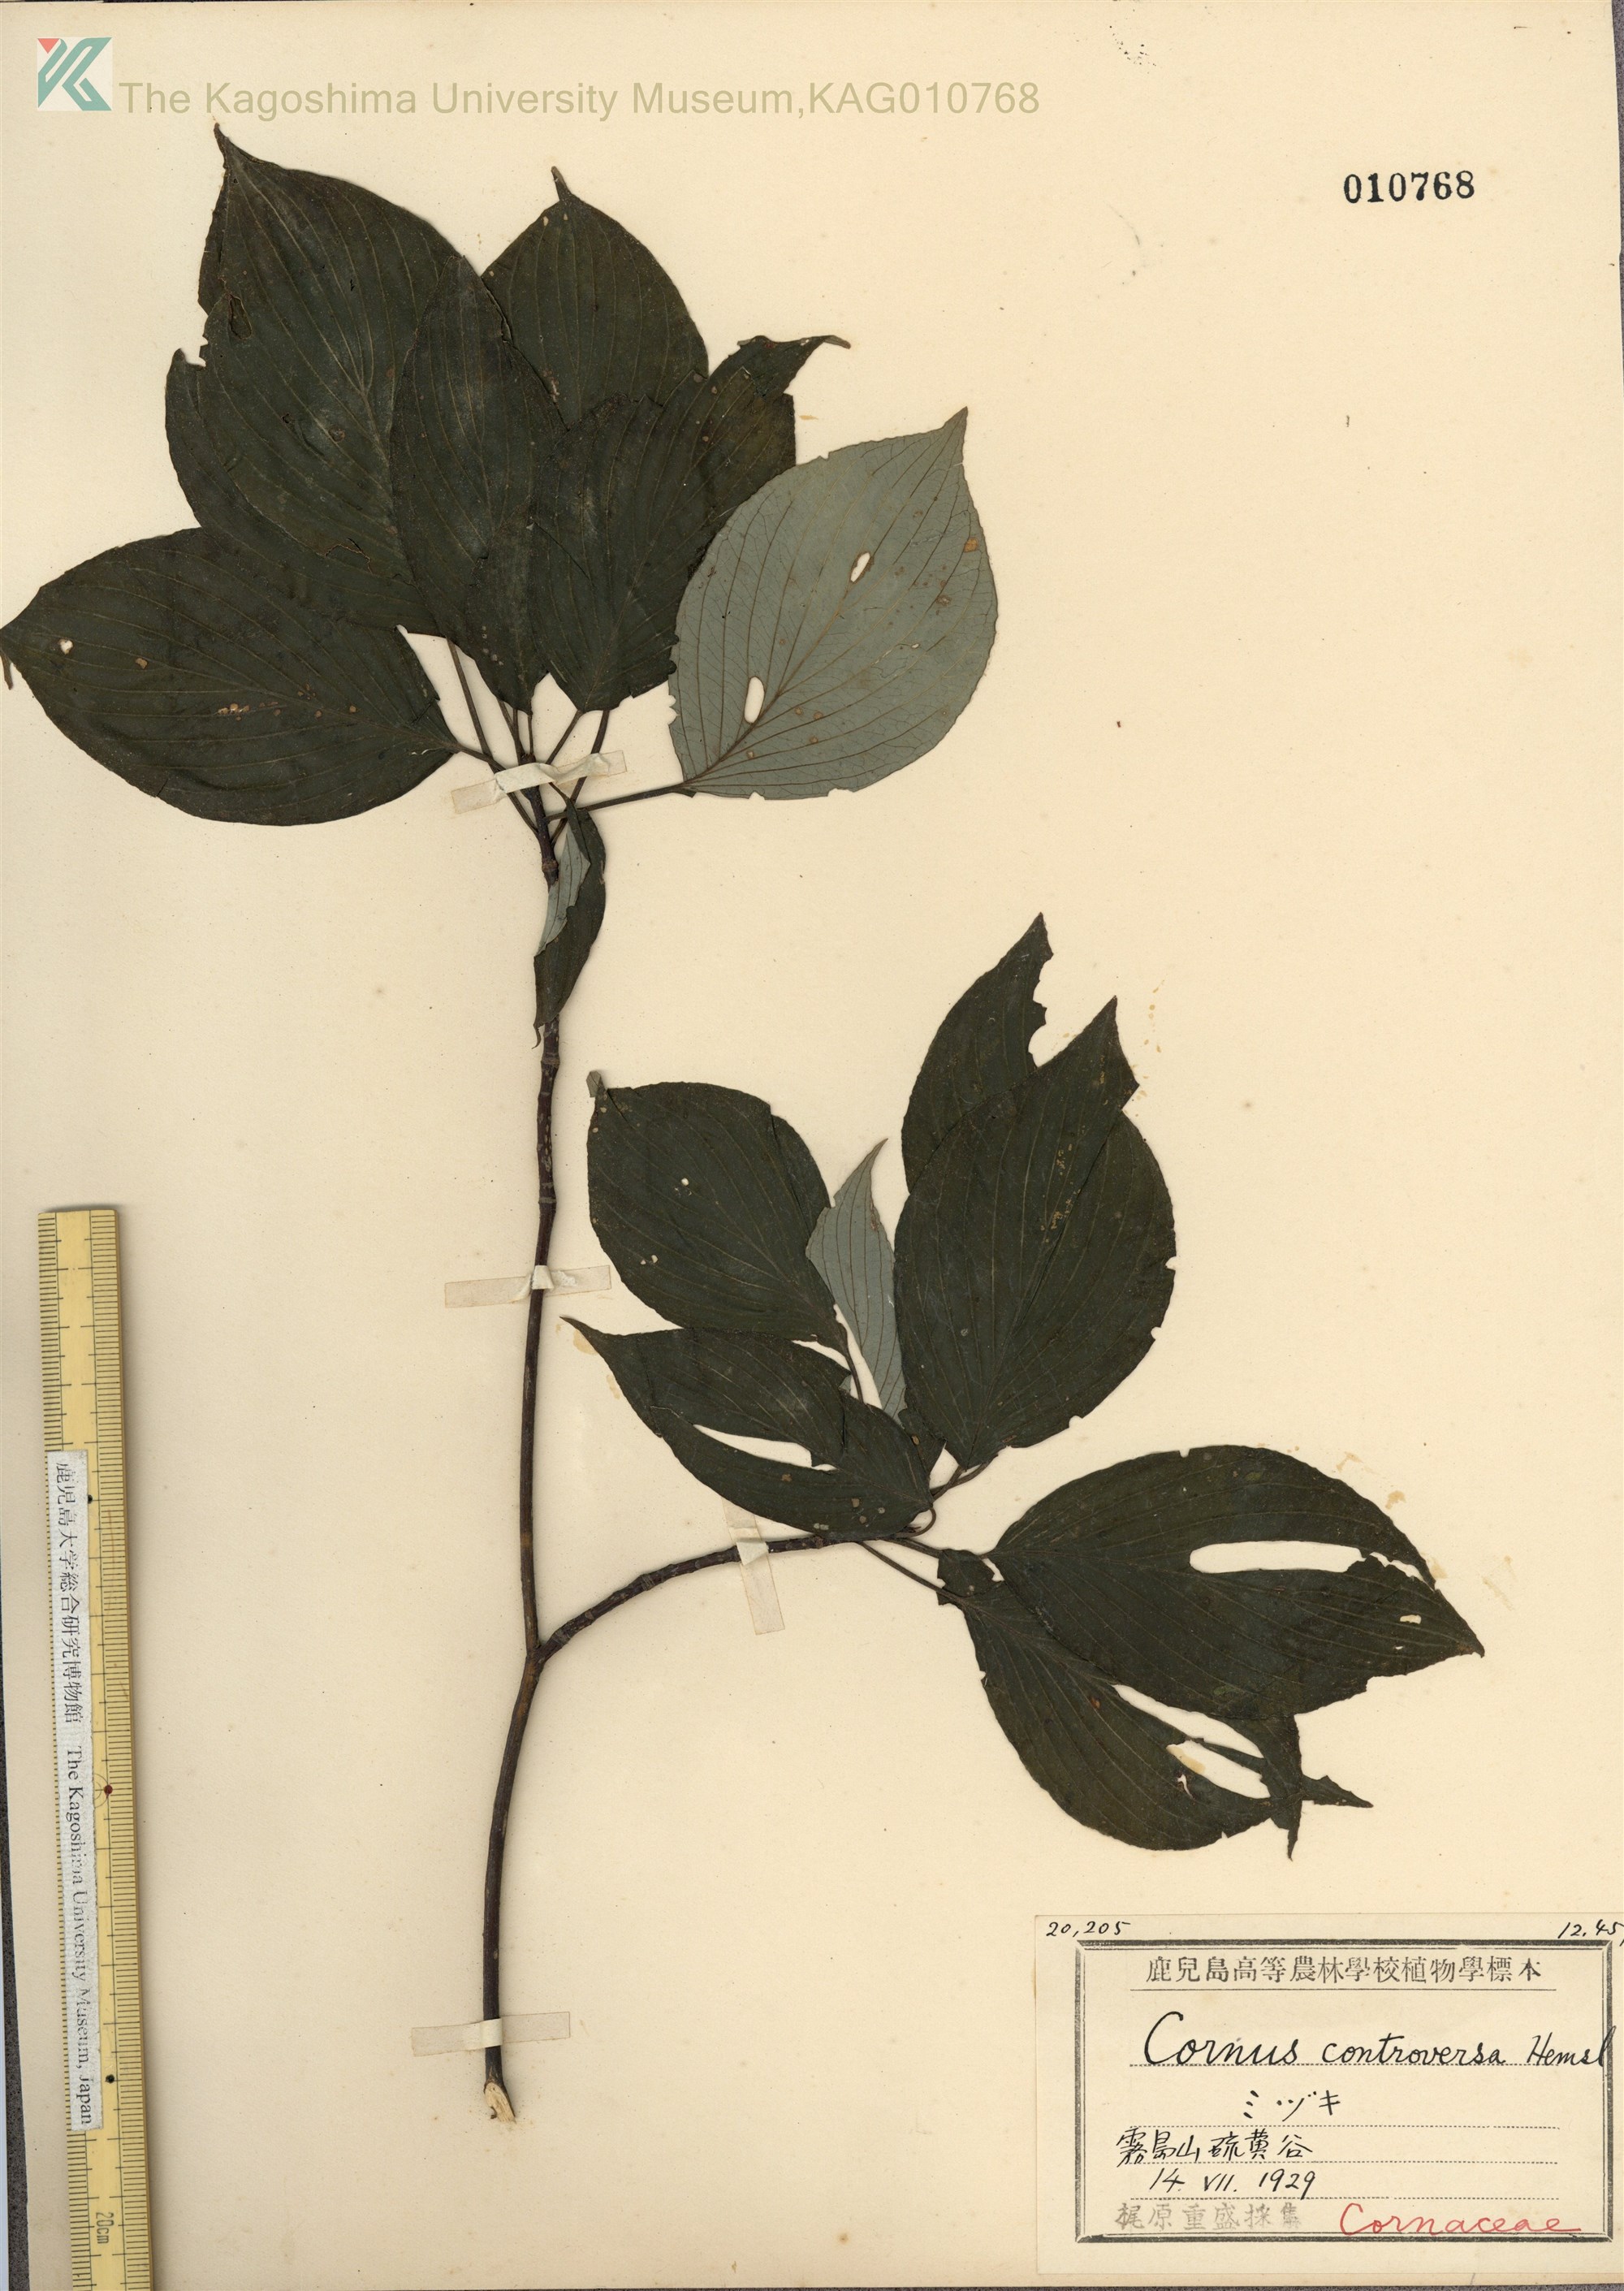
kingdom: Plantae
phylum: Tracheophyta
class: Magnoliopsida
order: Cornales
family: Cornaceae
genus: Cornus
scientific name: Cornus controversa
